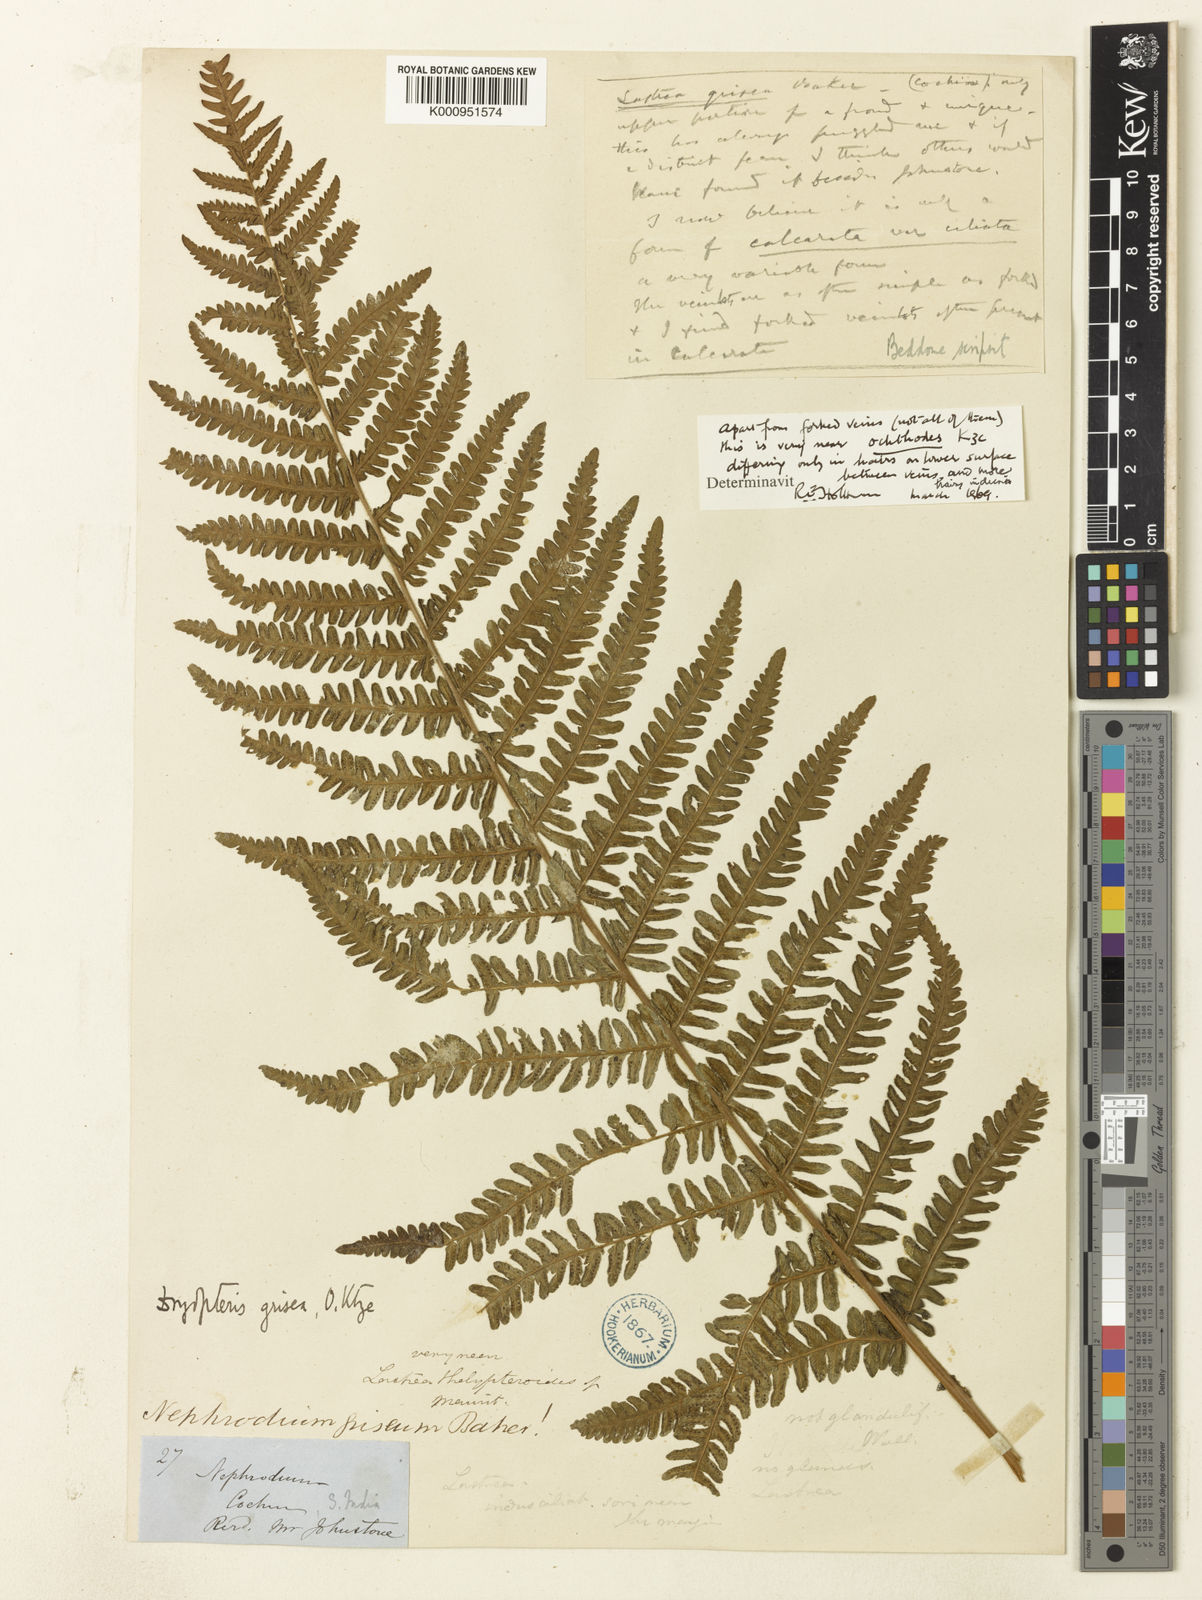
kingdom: Plantae
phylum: Tracheophyta
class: Polypodiopsida
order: Polypodiales
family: Thelypteridaceae
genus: Pseudocyclosorus
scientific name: Pseudocyclosorus ochthodes
